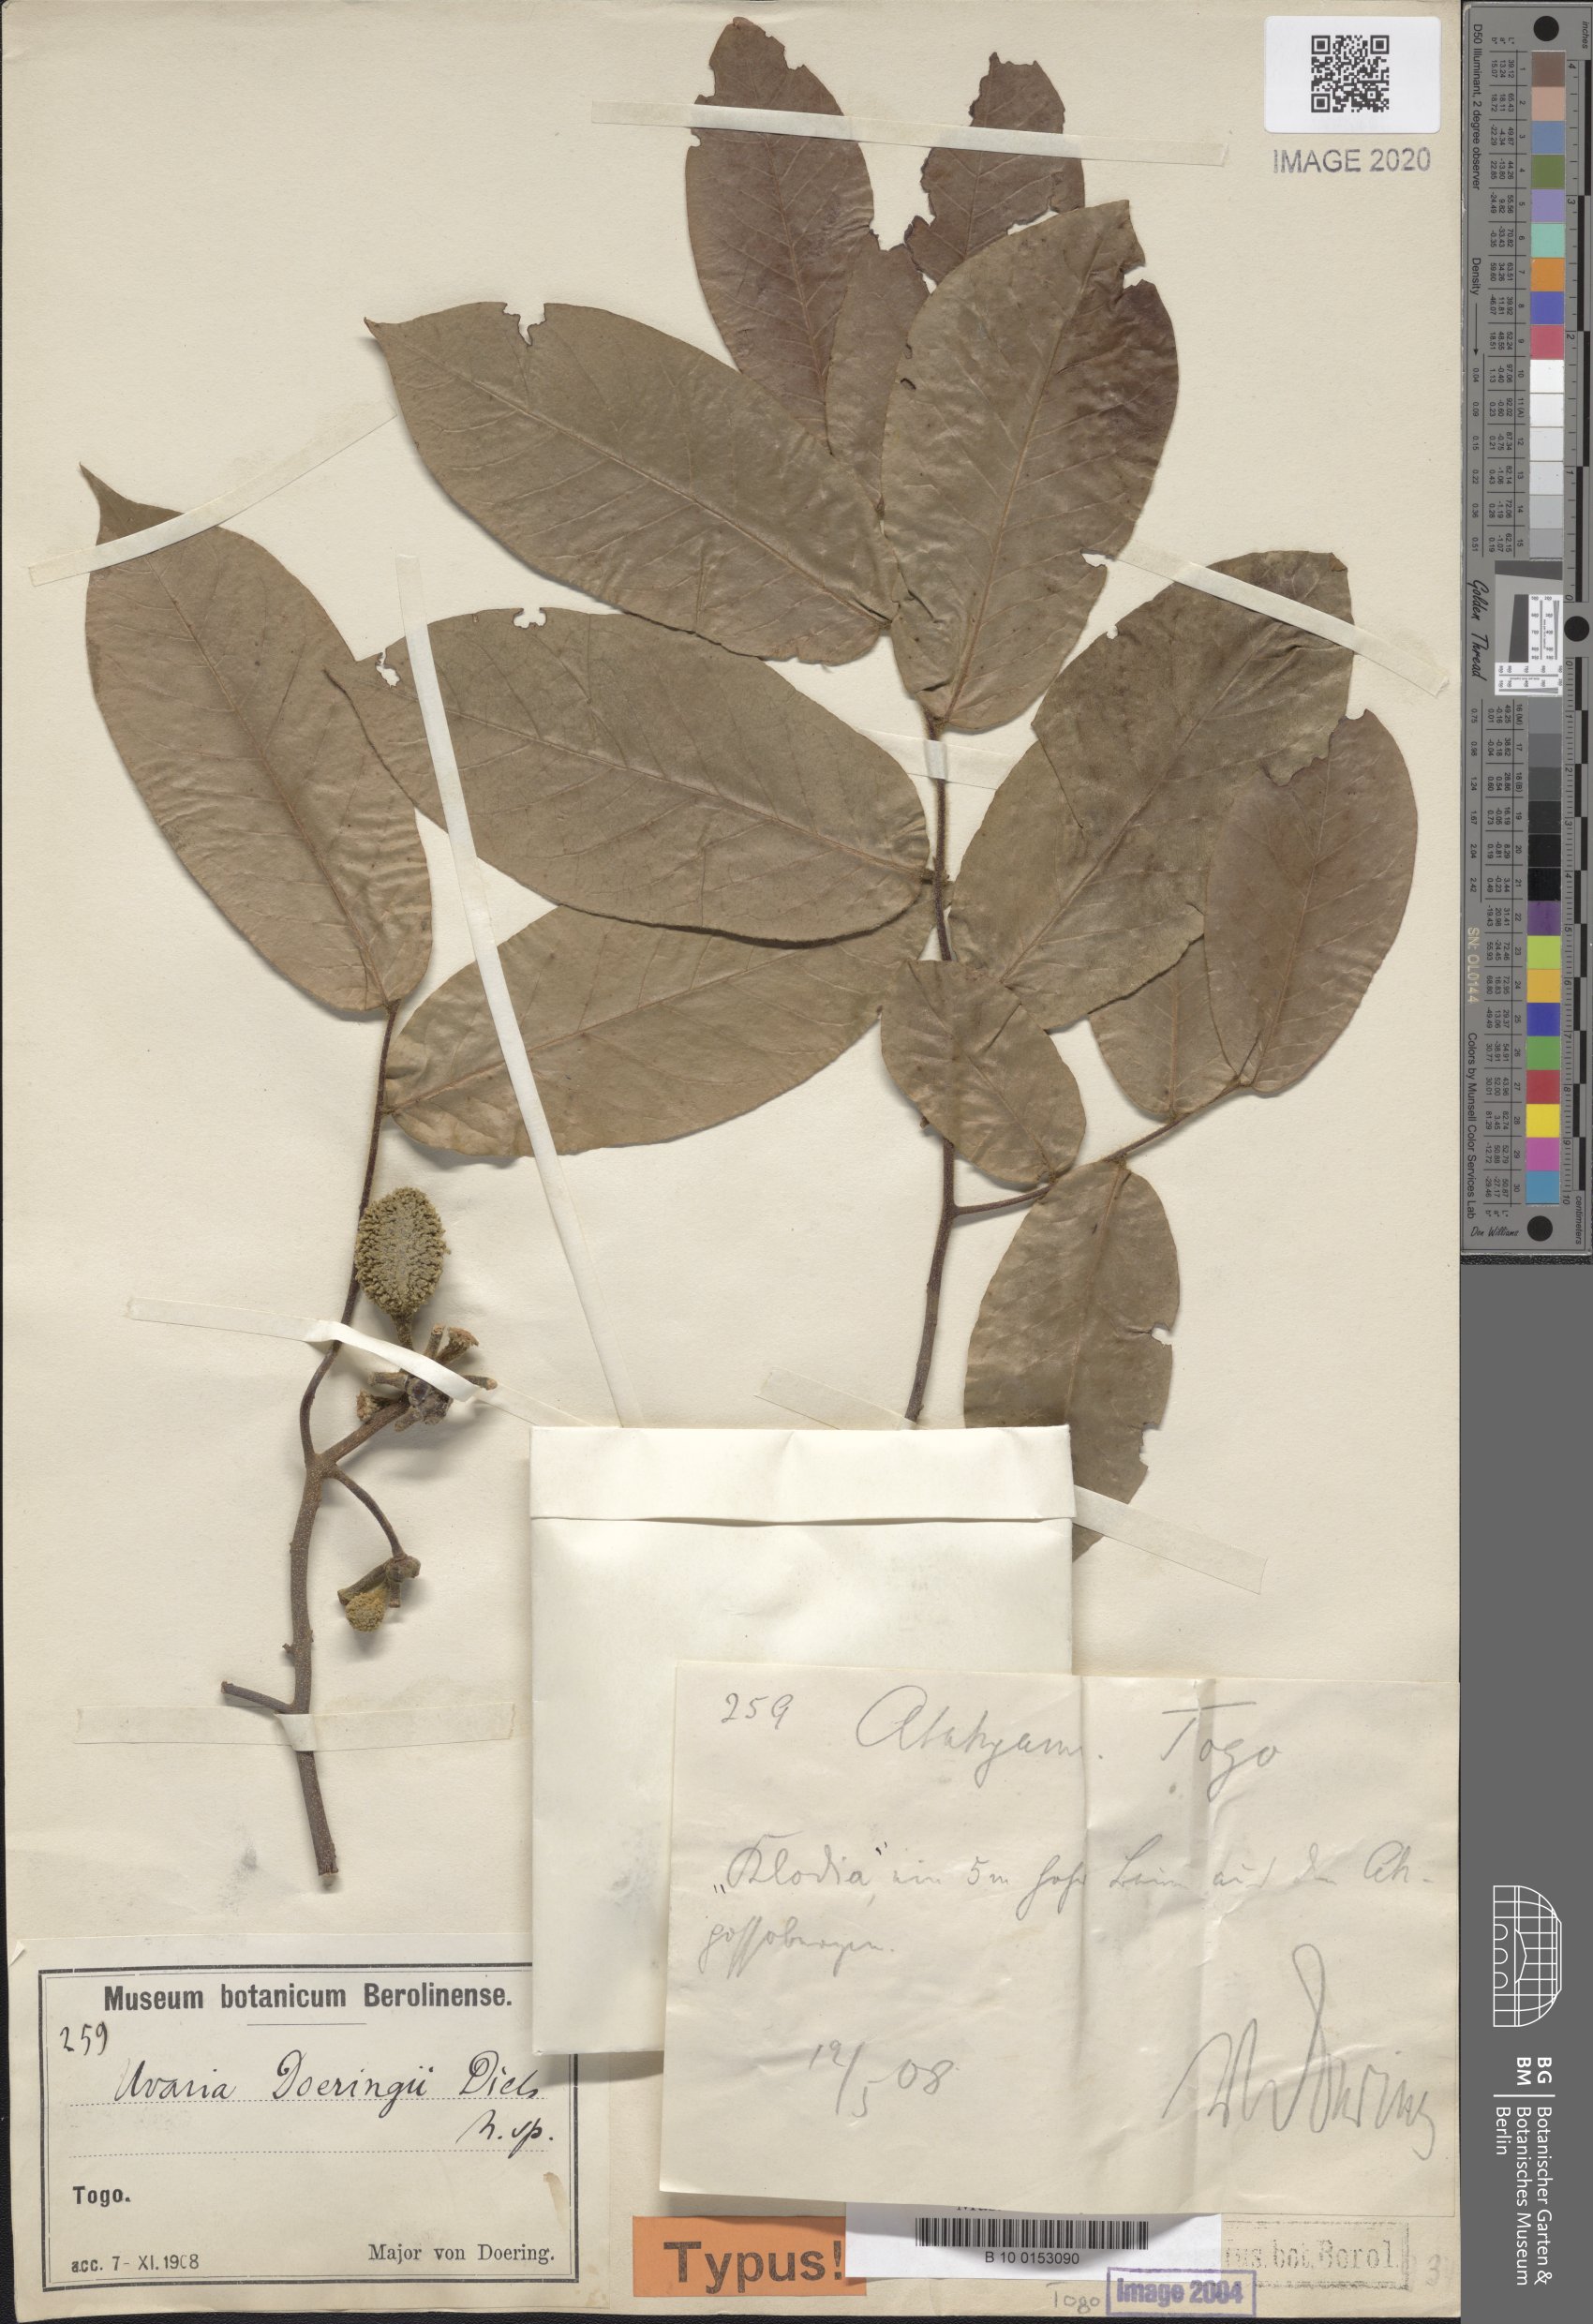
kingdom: Plantae
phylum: Tracheophyta
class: Magnoliopsida
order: Magnoliales
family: Annonaceae
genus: Uvaria
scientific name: Uvaria doeringii
